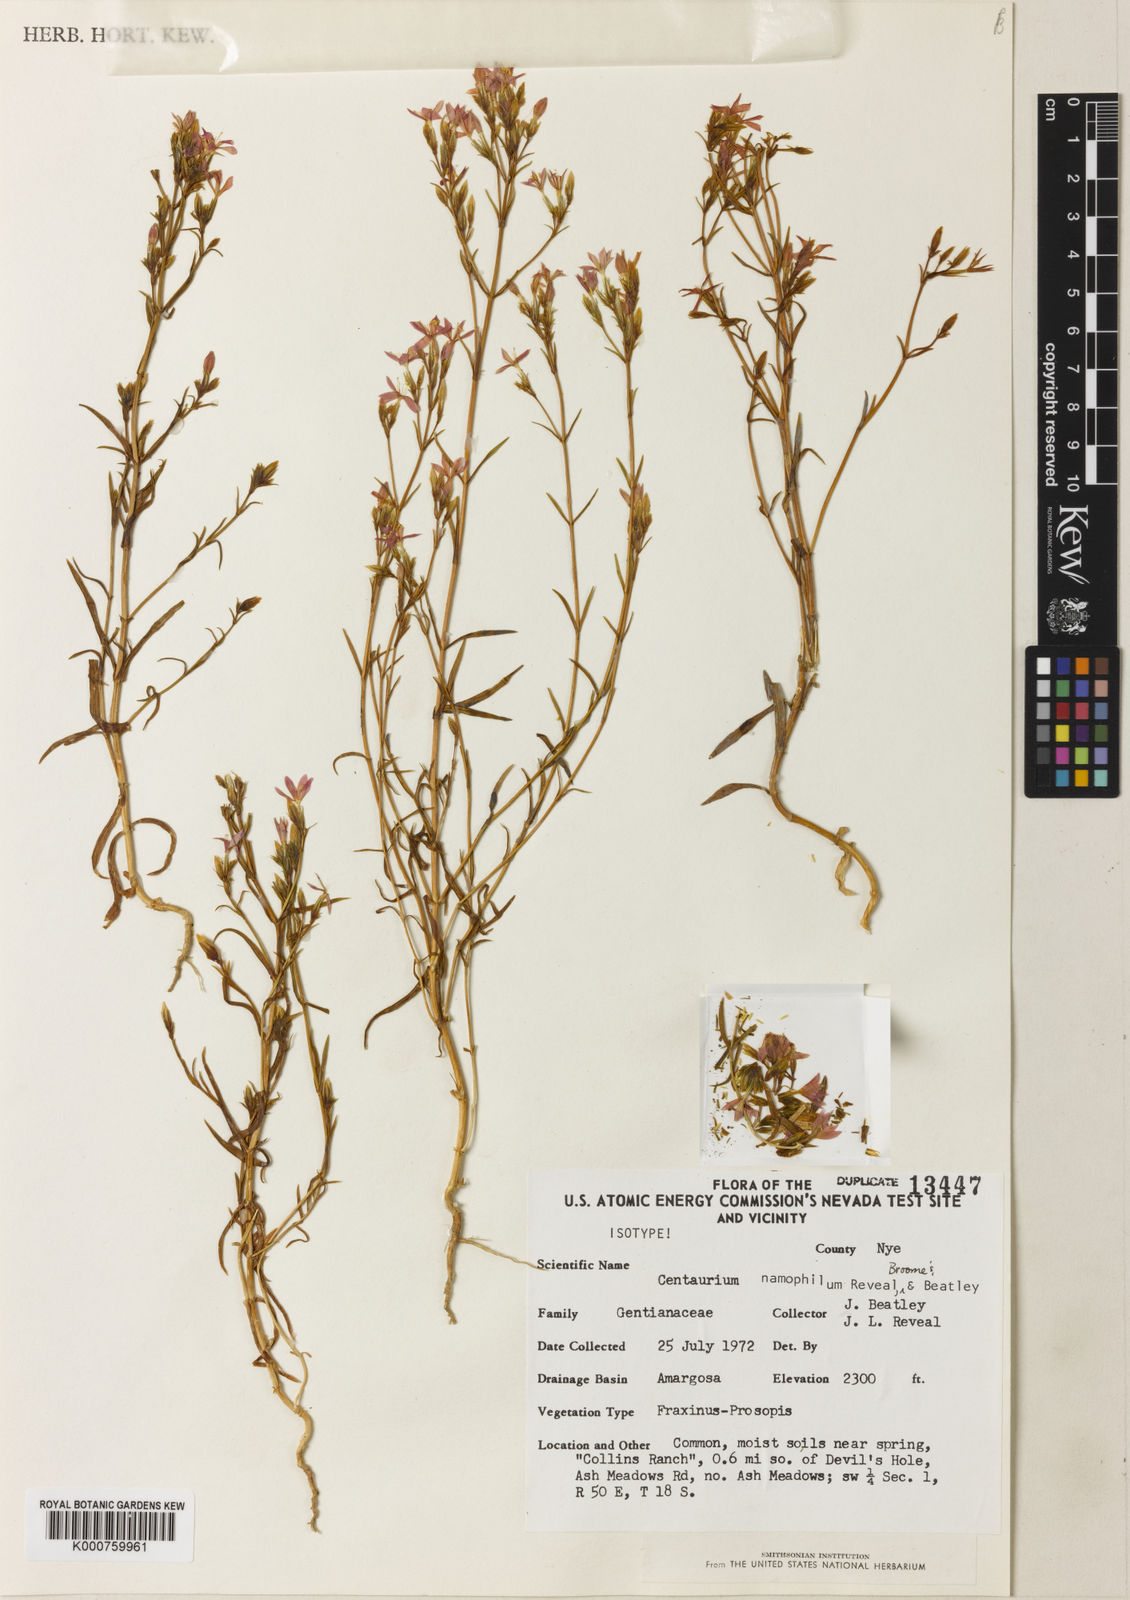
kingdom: Plantae
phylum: Tracheophyta
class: Magnoliopsida
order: Gentianales
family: Gentianaceae
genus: Centaurium
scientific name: Centaurium
